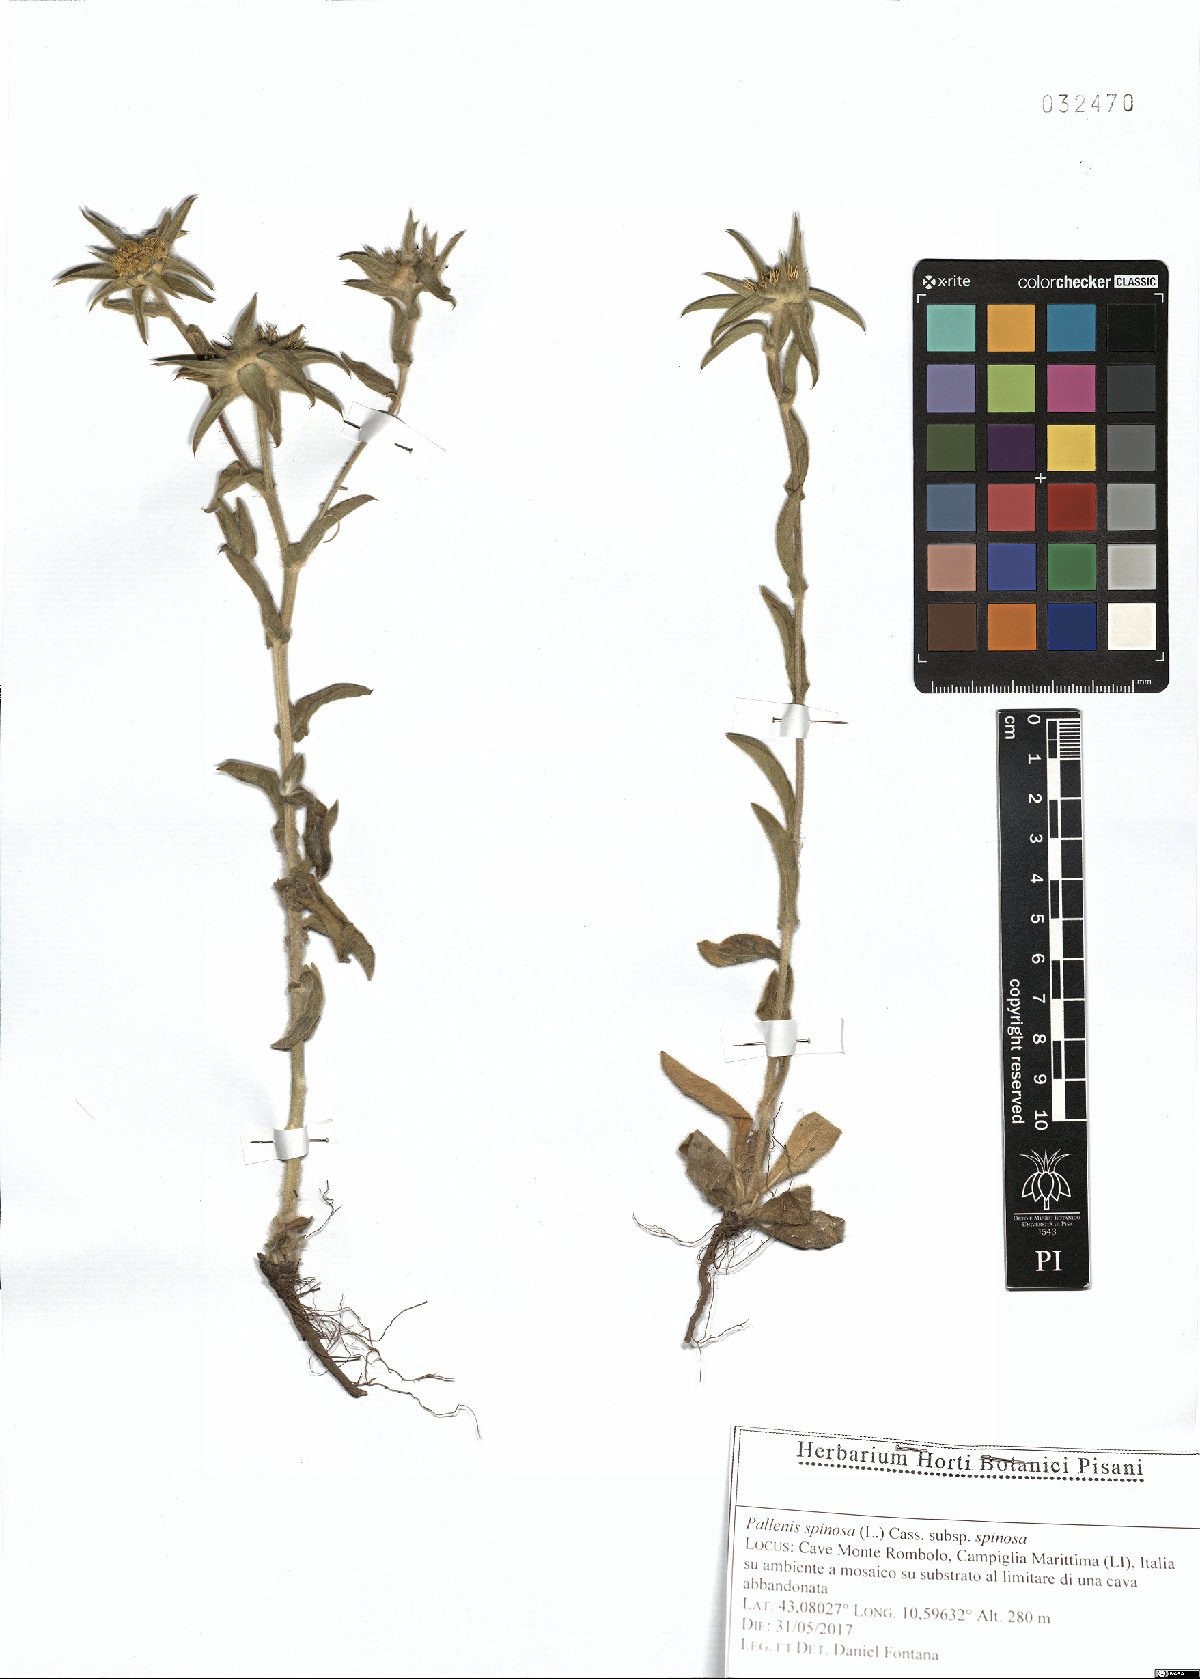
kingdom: Plantae
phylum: Tracheophyta
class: Magnoliopsida
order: Asterales
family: Asteraceae
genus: Pallenis
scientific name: Pallenis spinosa
